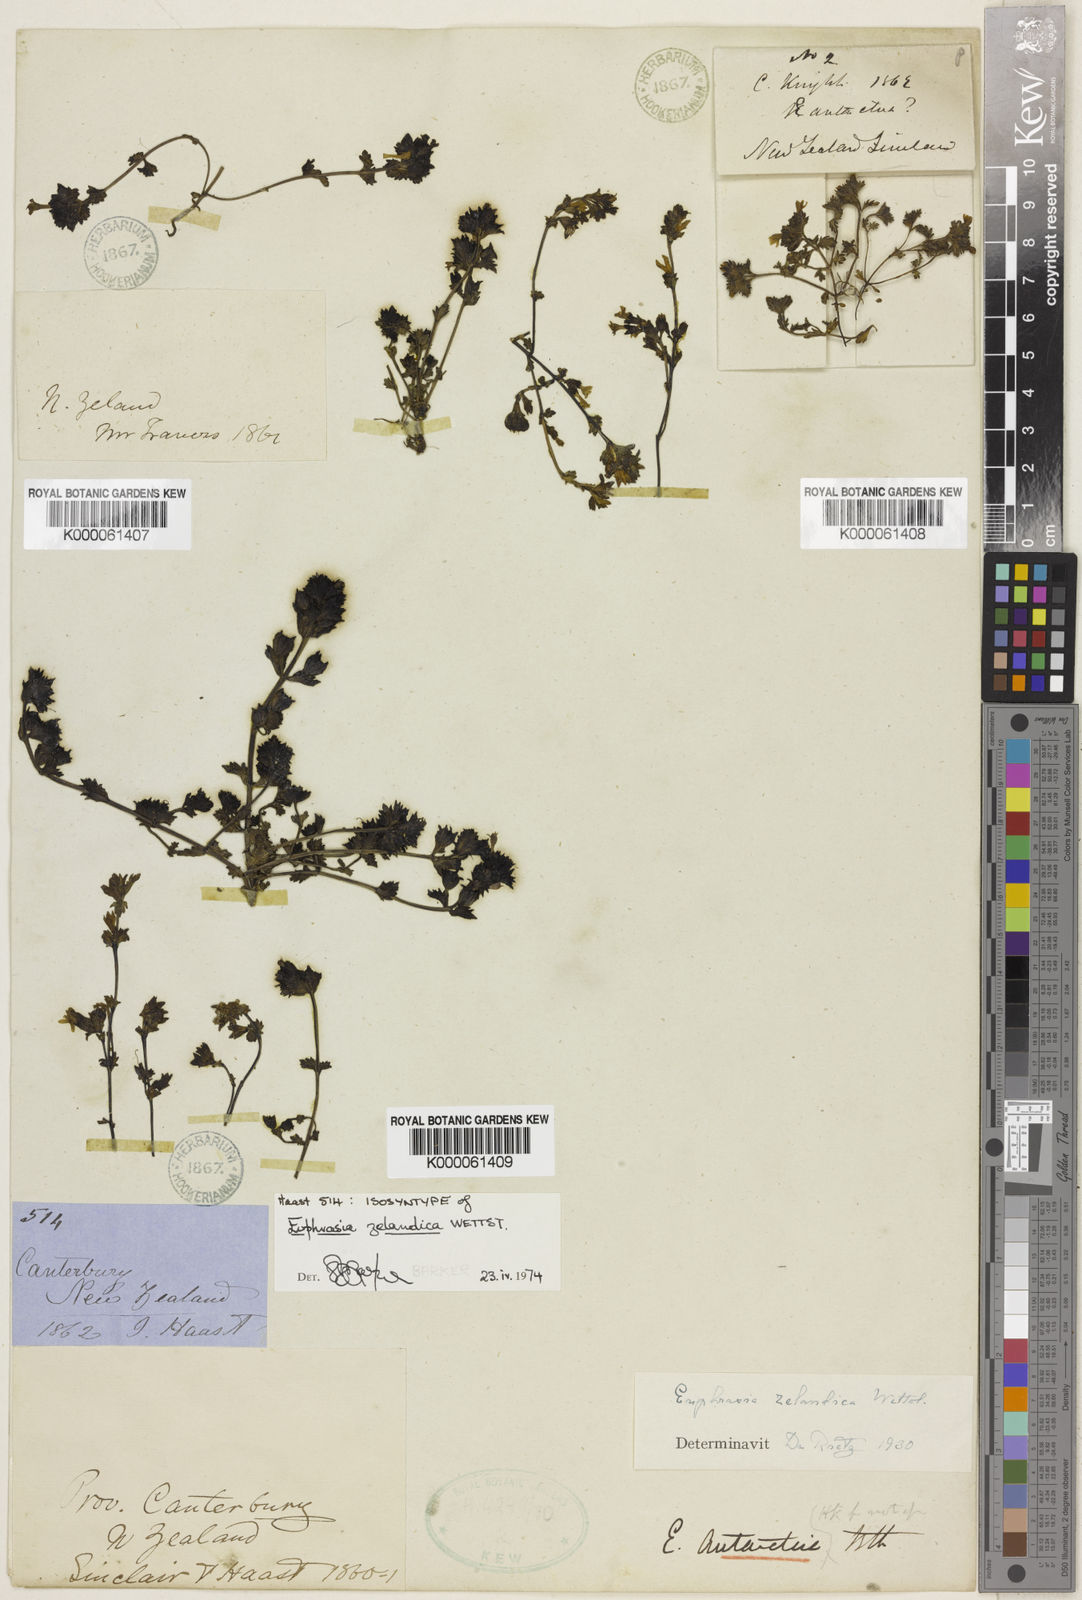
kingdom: Plantae
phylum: Tracheophyta
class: Magnoliopsida
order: Lamiales
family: Orobanchaceae
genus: Euphrasia
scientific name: Euphrasia zelandica
